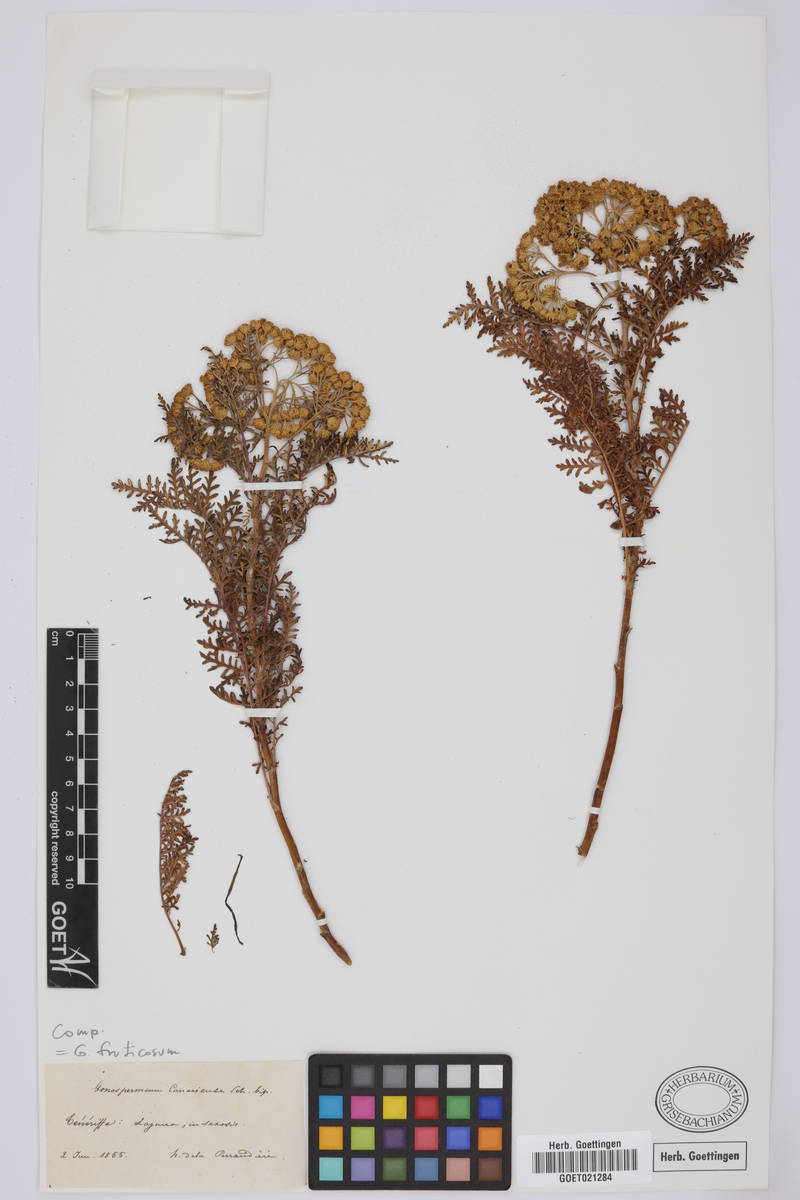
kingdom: Plantae
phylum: Tracheophyta
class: Magnoliopsida
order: Asterales
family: Asteraceae
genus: Gonospermum
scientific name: Gonospermum fruticosum
